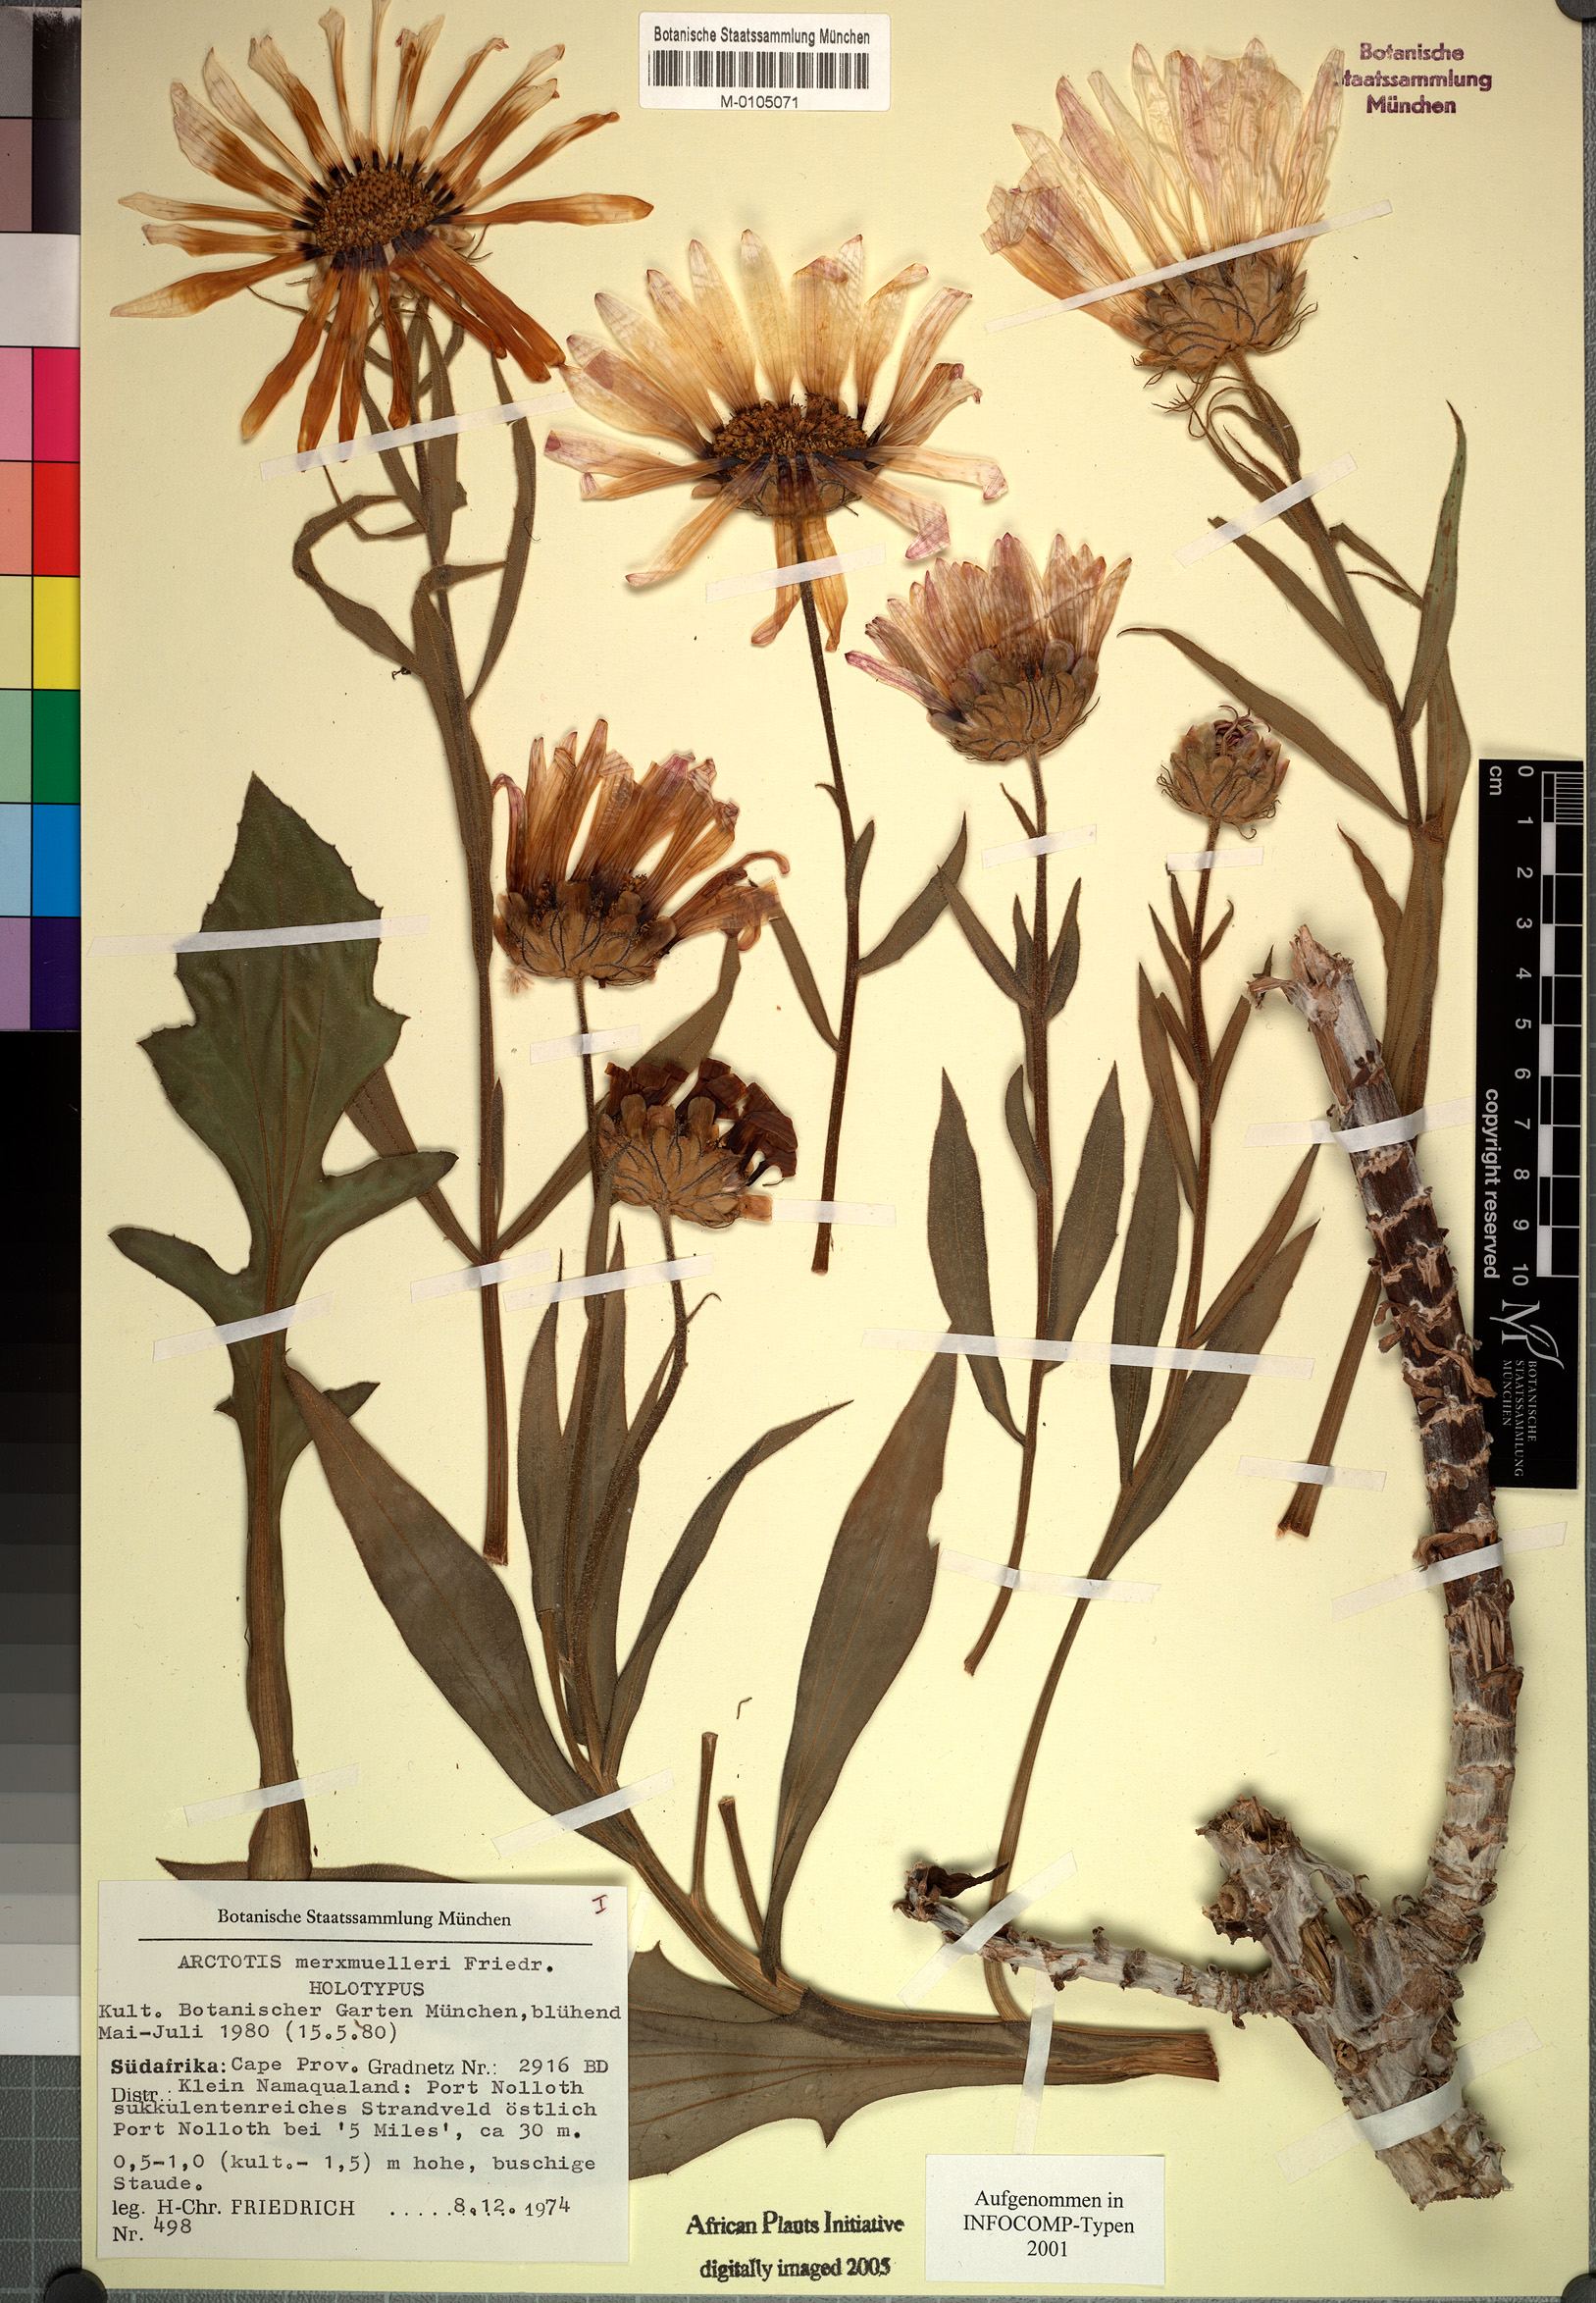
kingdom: Plantae
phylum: Tracheophyta
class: Magnoliopsida
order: Asterales
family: Asteraceae
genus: Arctotis
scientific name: Arctotis decurrens
